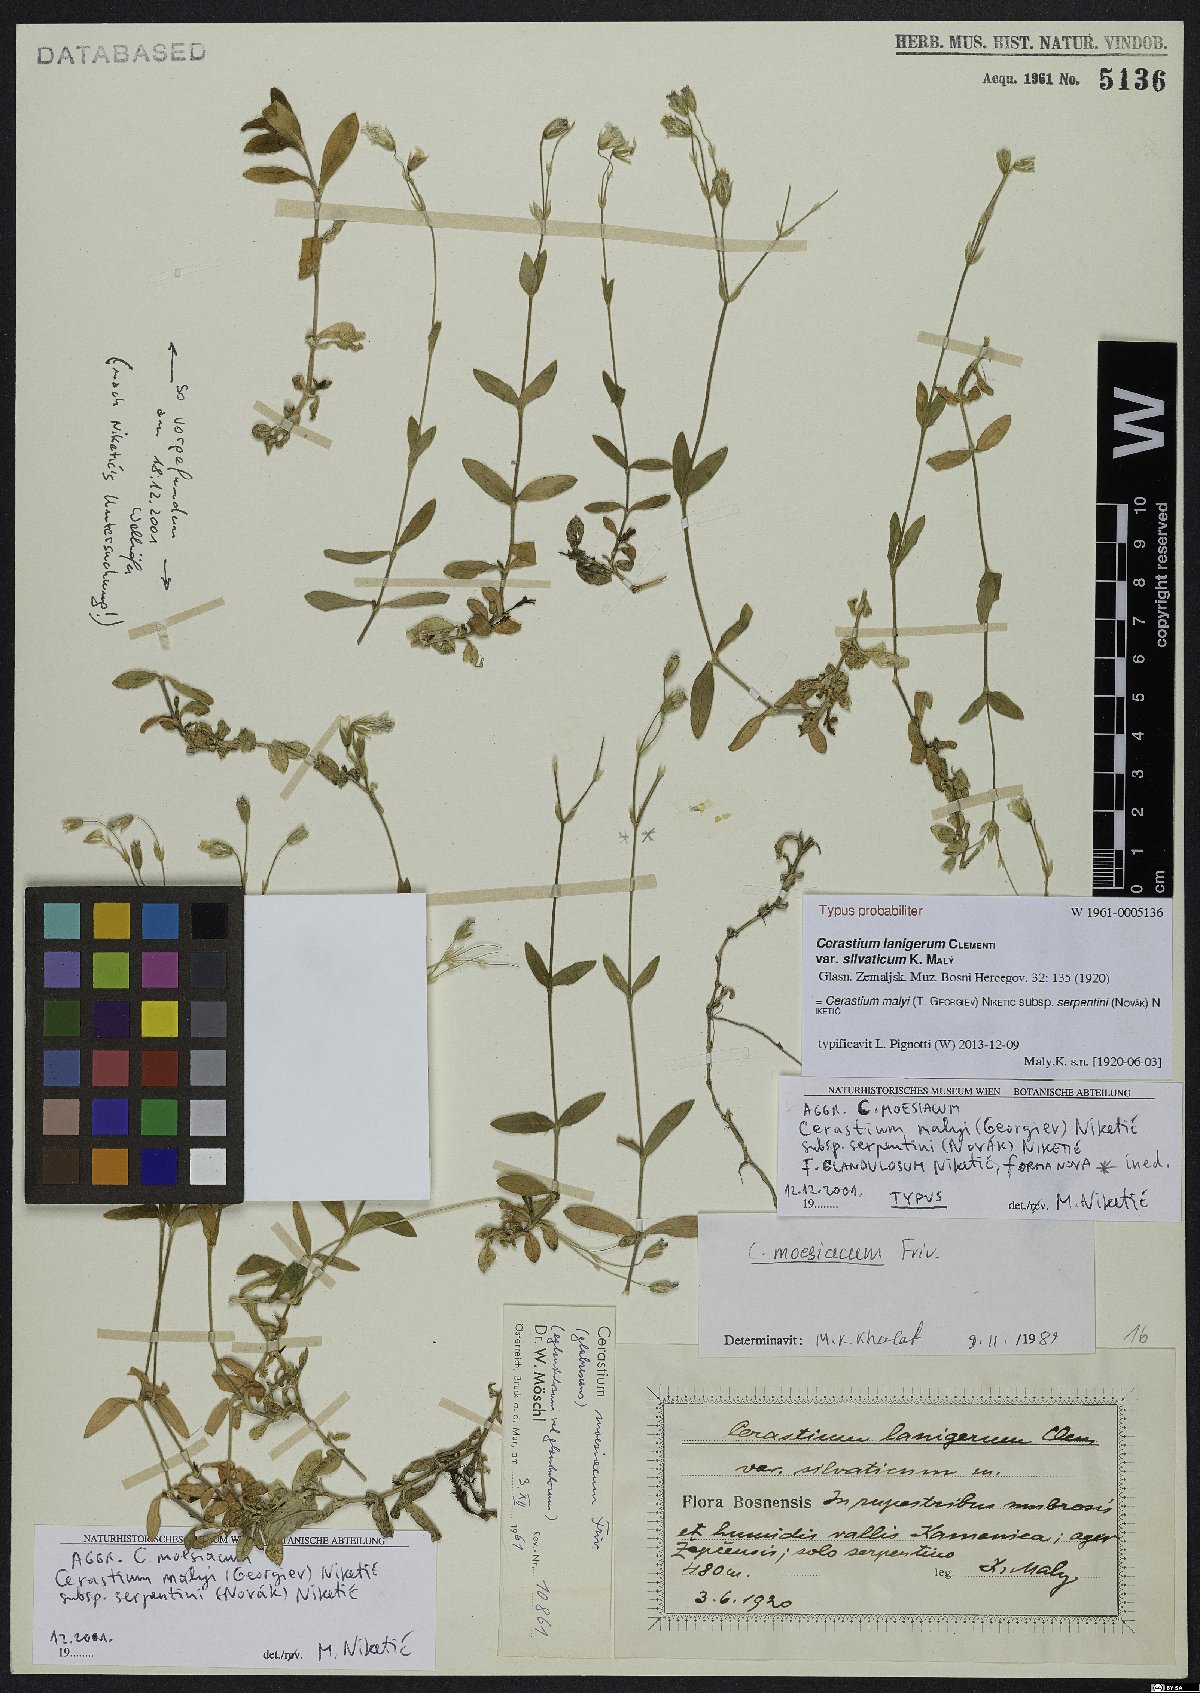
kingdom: Plantae
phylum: Tracheophyta
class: Magnoliopsida
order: Caryophyllales
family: Caryophyllaceae
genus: Cerastium
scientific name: Cerastium malyi
